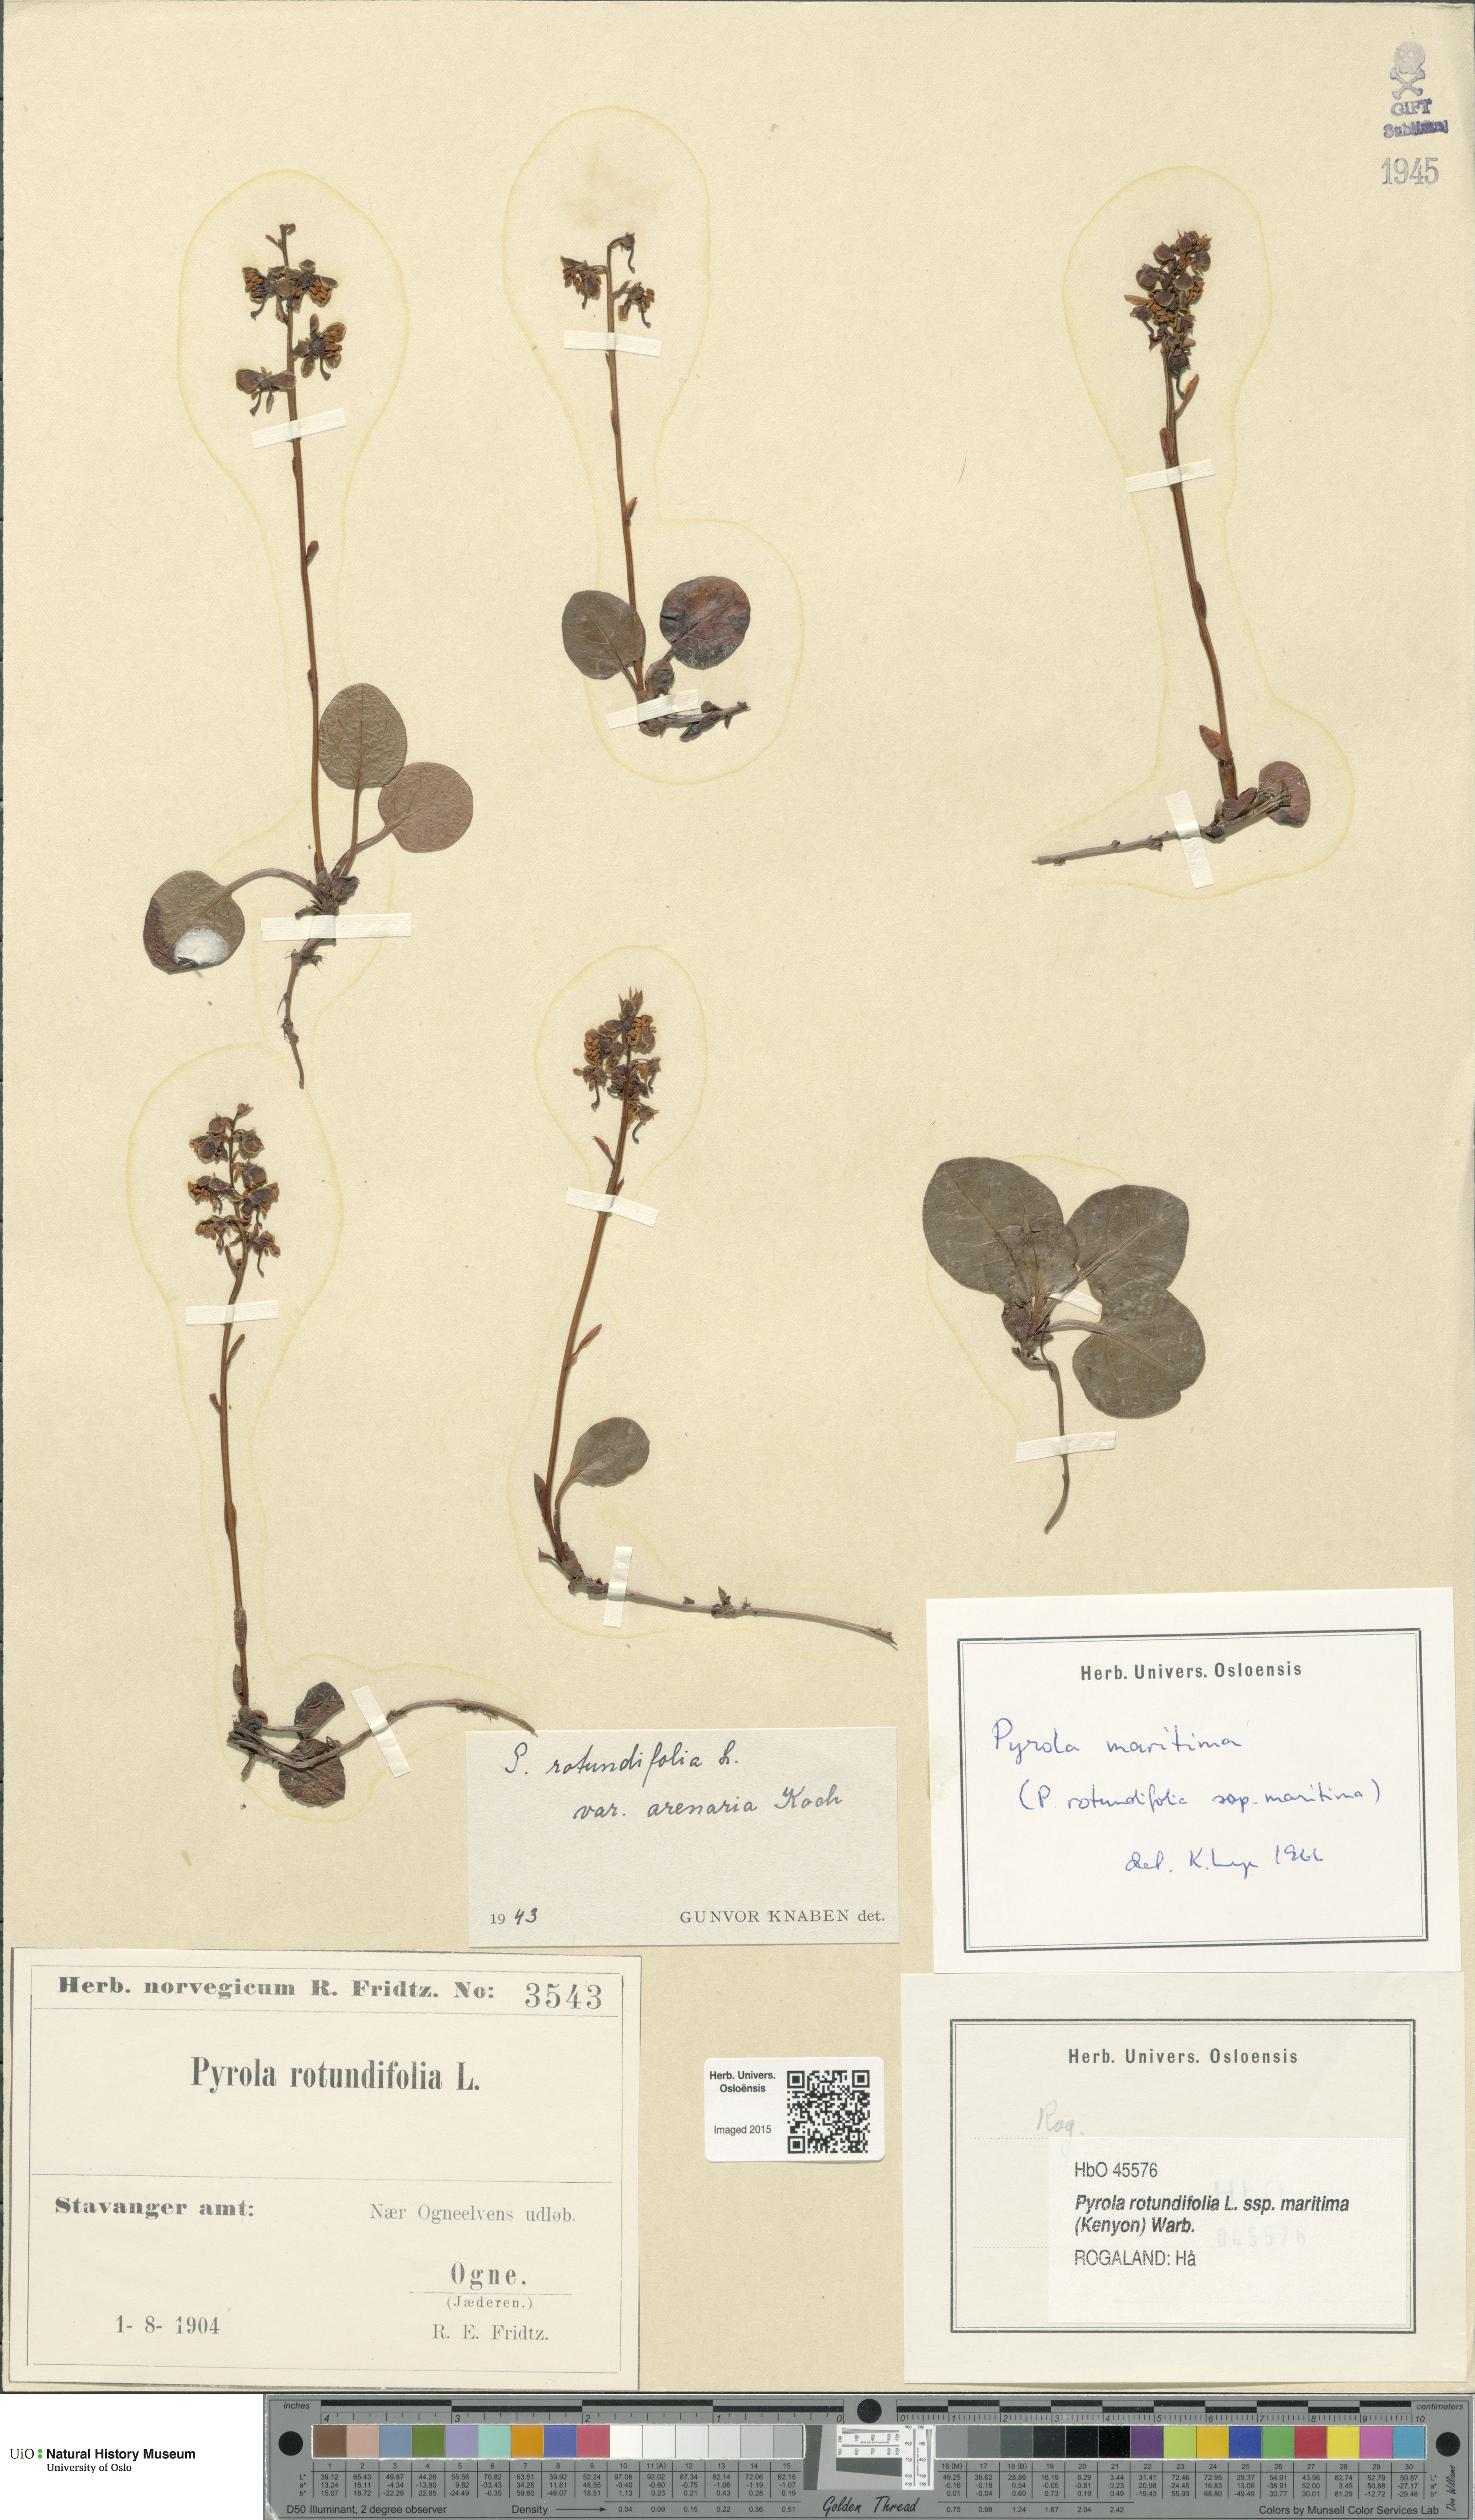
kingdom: Plantae
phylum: Tracheophyta
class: Magnoliopsida
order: Ericales
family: Ericaceae
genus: Pyrola
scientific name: Pyrola rotundifolia
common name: Round-leaved wintergreen
